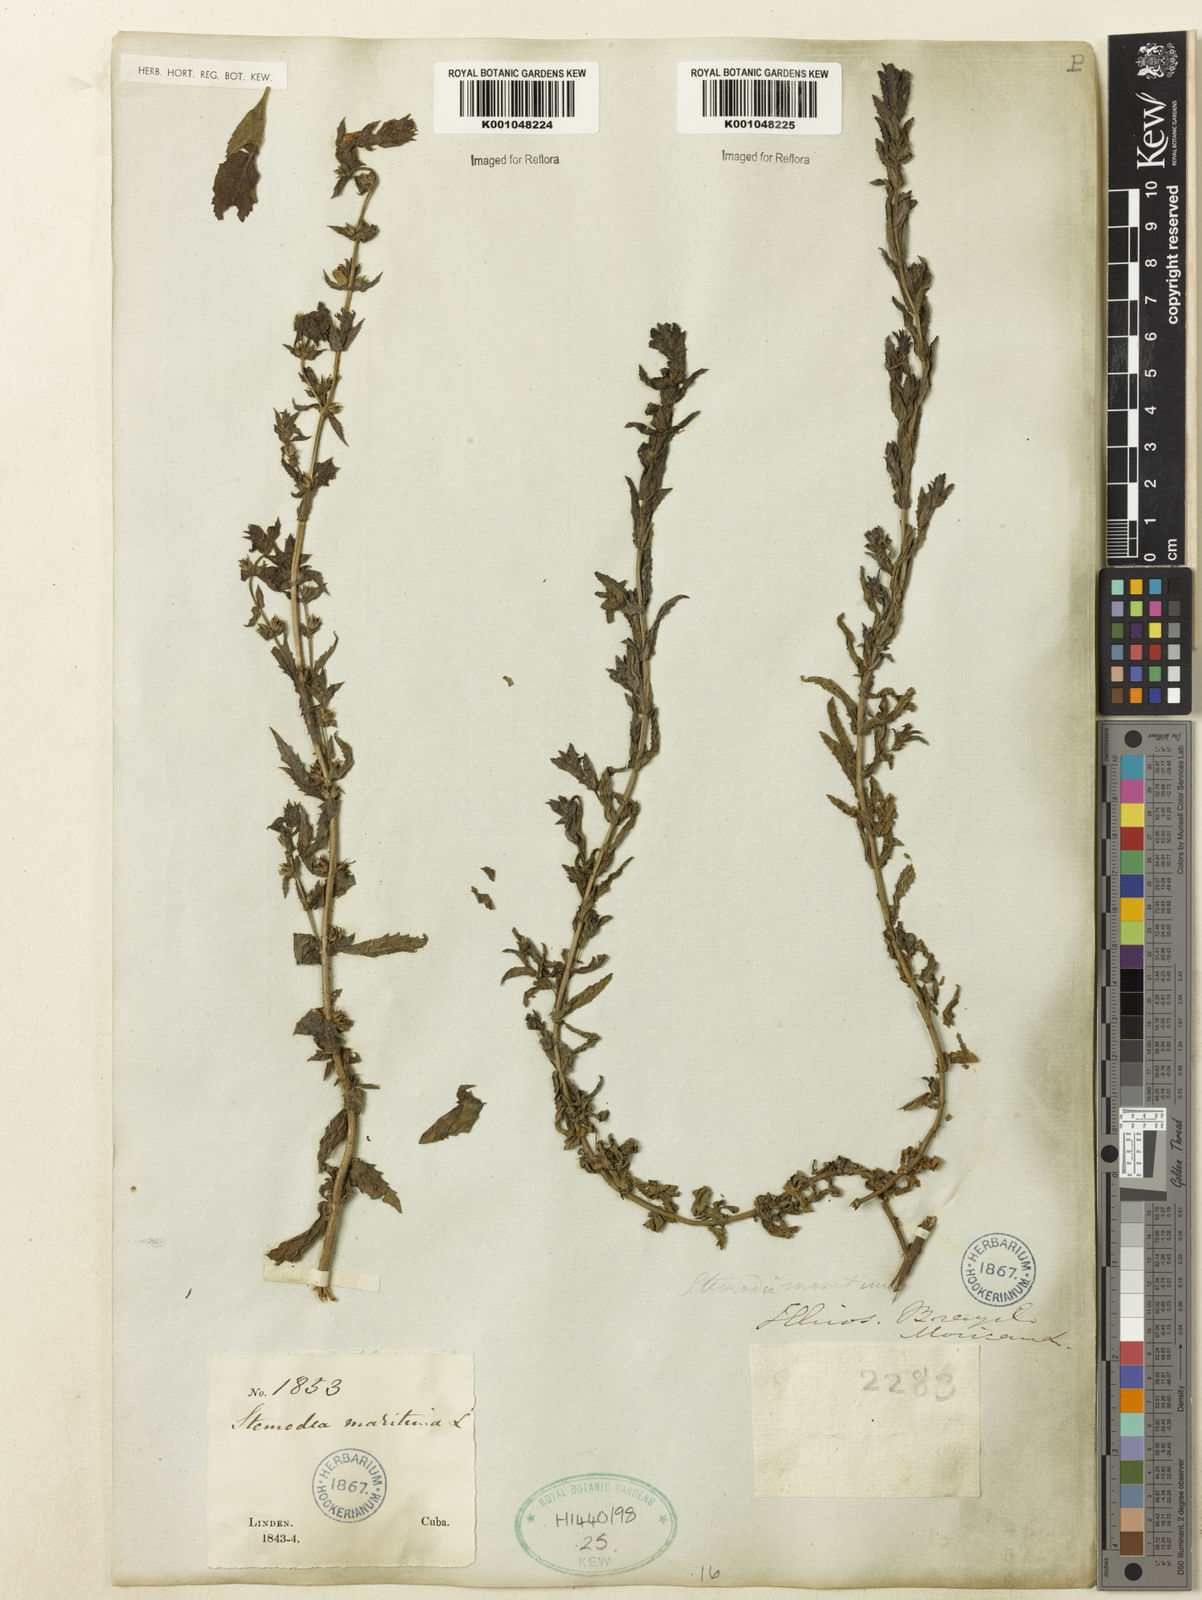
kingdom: Plantae
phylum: Tracheophyta
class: Magnoliopsida
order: Lamiales
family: Plantaginaceae
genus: Stemodia
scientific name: Stemodia maritima
